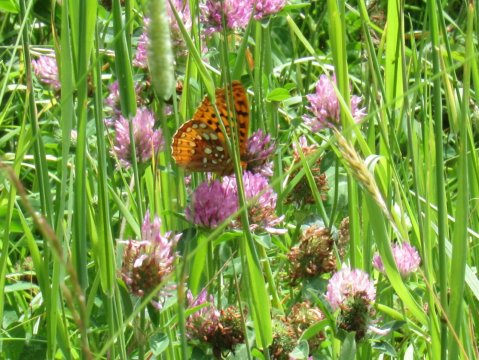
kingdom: Animalia
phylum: Arthropoda
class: Insecta
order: Lepidoptera
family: Nymphalidae
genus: Speyeria
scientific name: Speyeria cybele
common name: Great Spangled Fritillary
